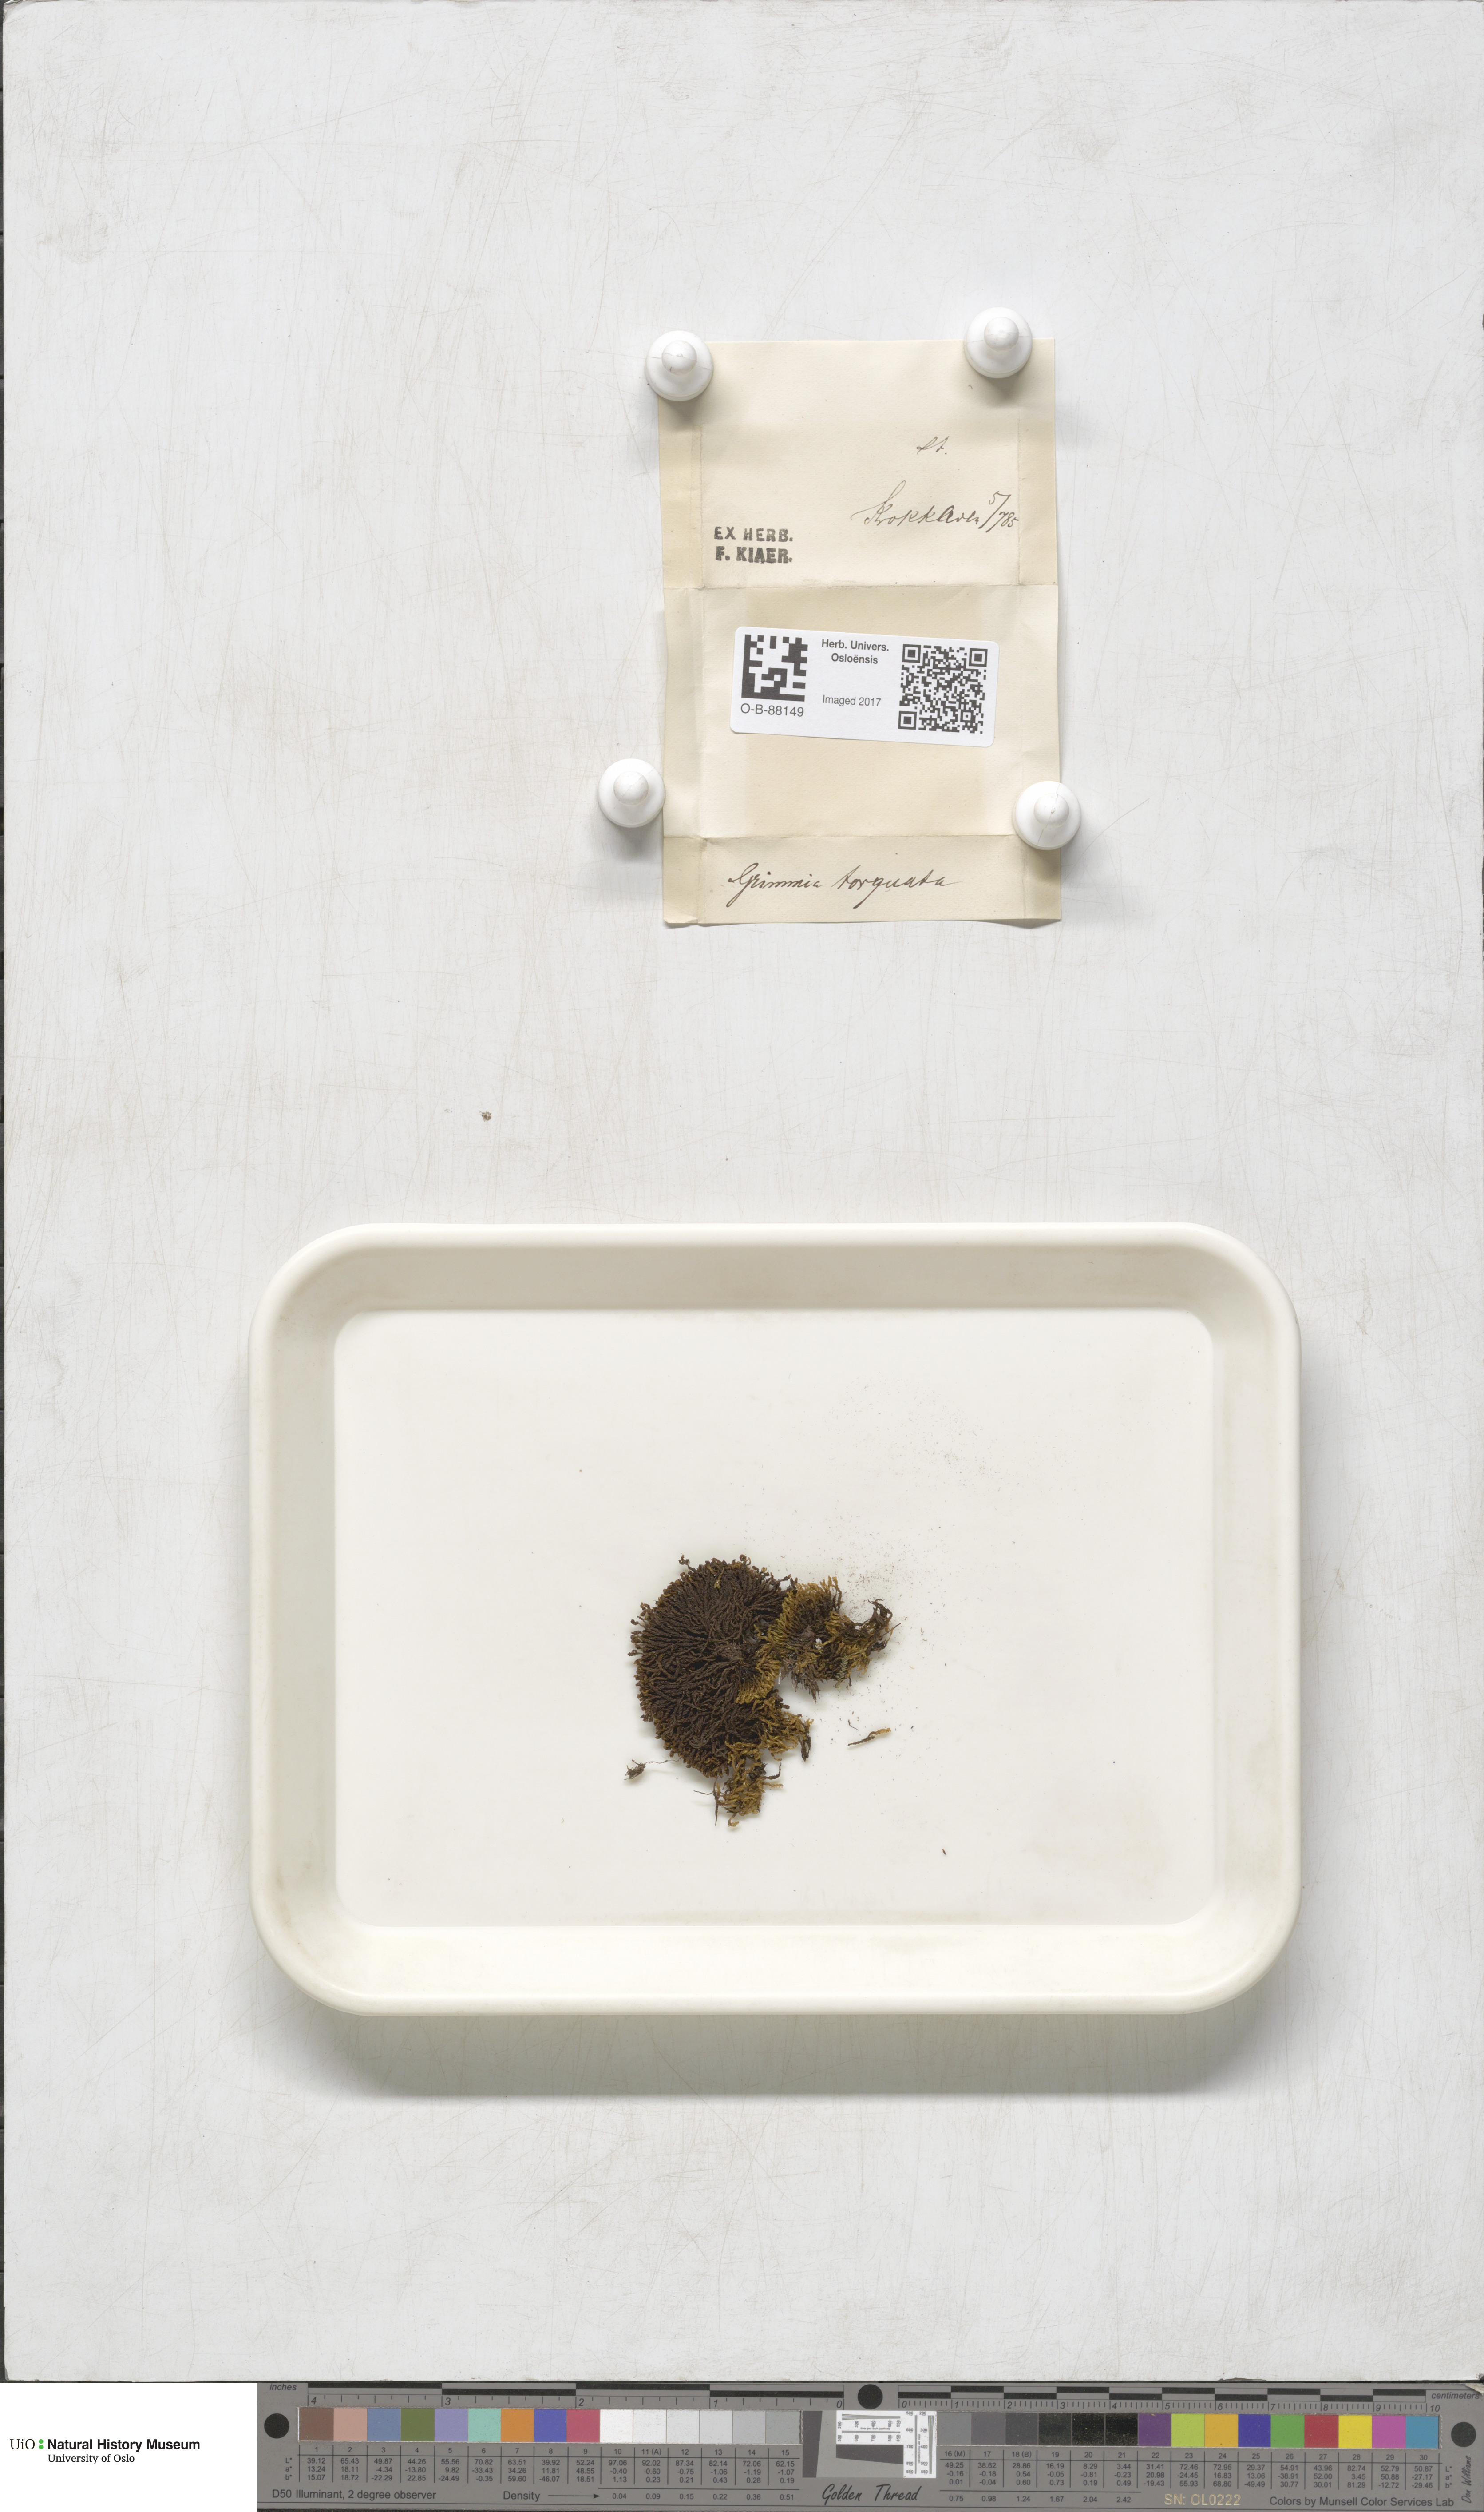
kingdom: Plantae
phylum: Bryophyta
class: Bryopsida
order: Grimmiales
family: Grimmiaceae
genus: Grimmia
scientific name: Grimmia torquata
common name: Twisted grimmia
